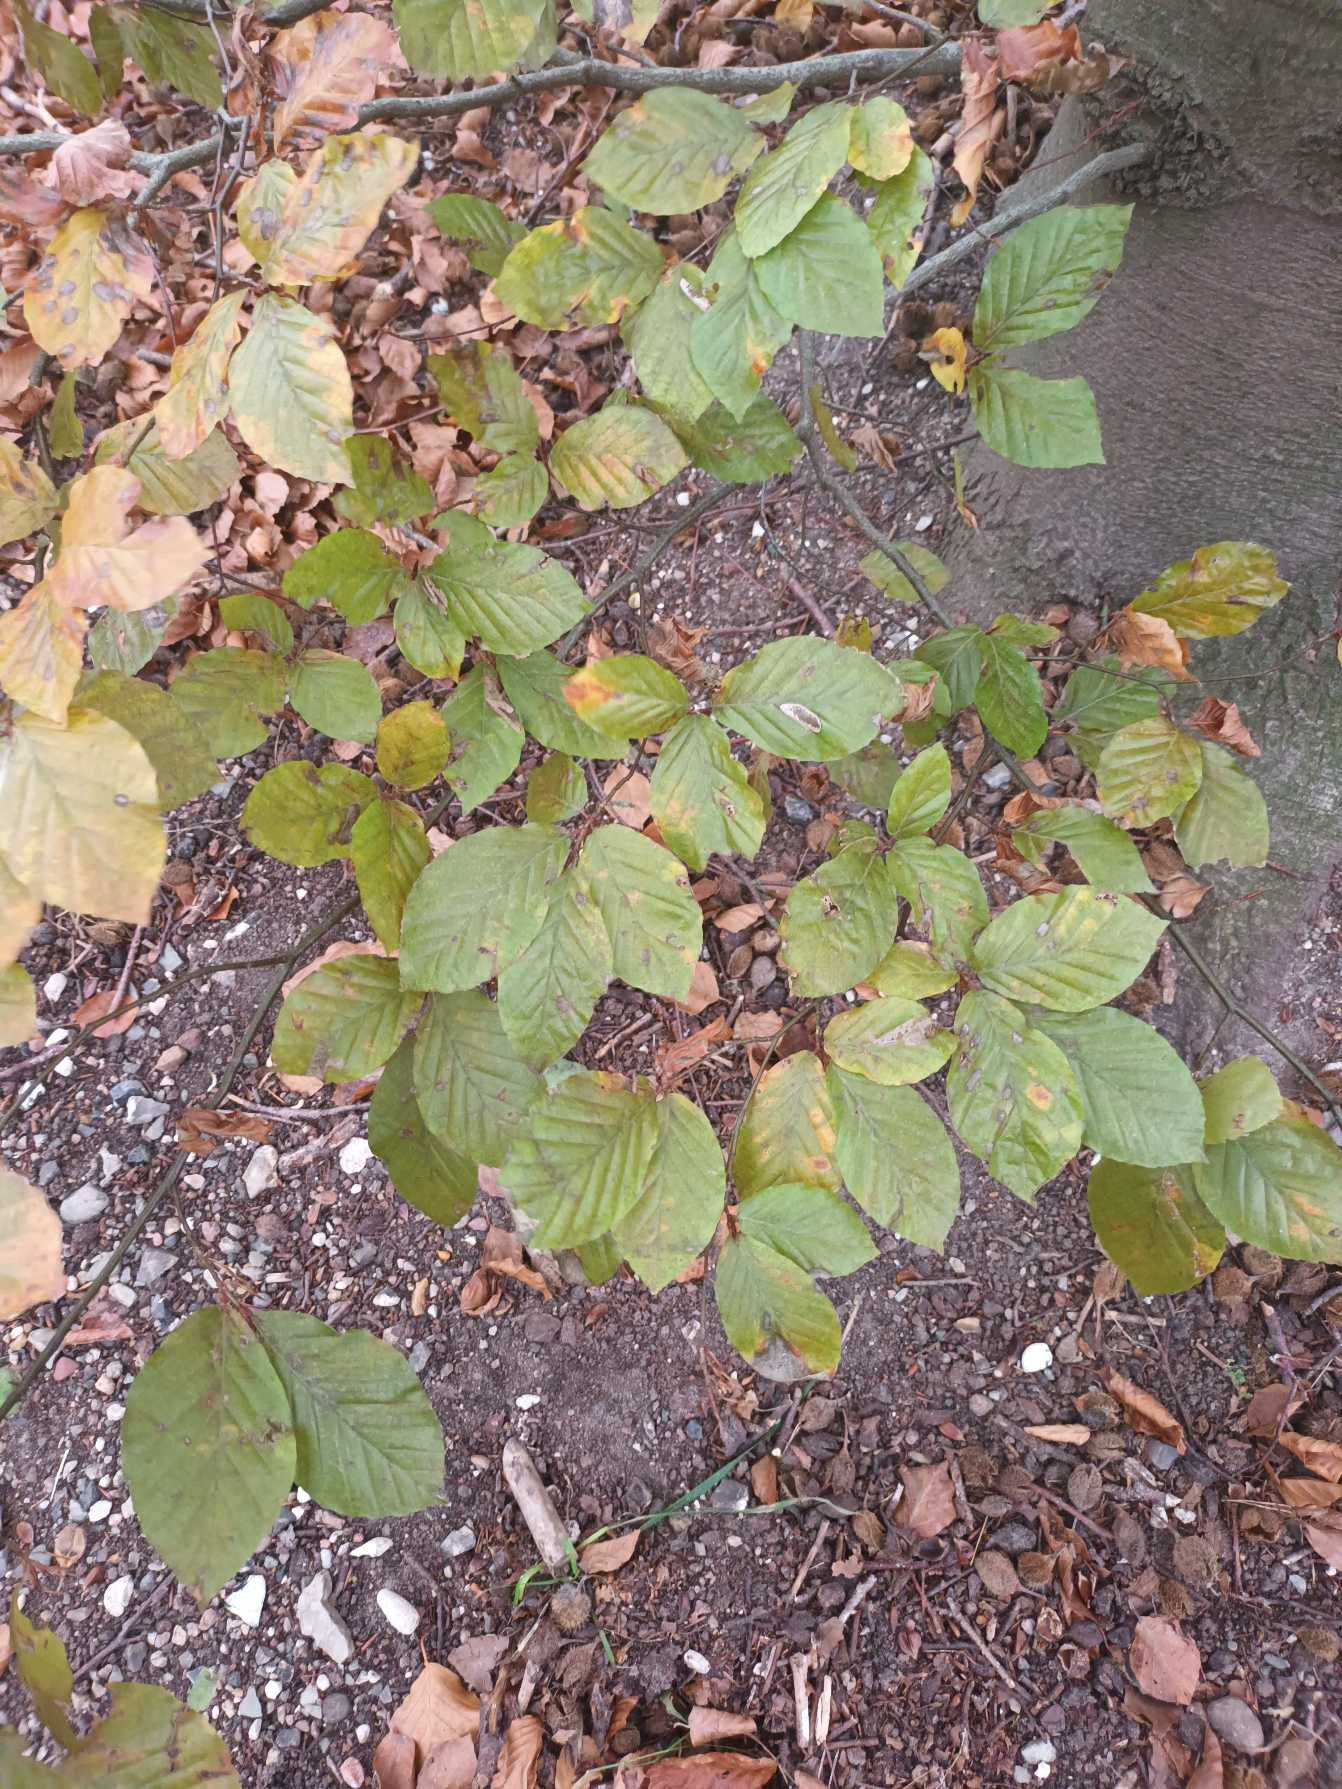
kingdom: Plantae
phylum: Tracheophyta
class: Magnoliopsida
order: Fagales
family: Fagaceae
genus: Fagus
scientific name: Fagus sylvatica
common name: Bøg
